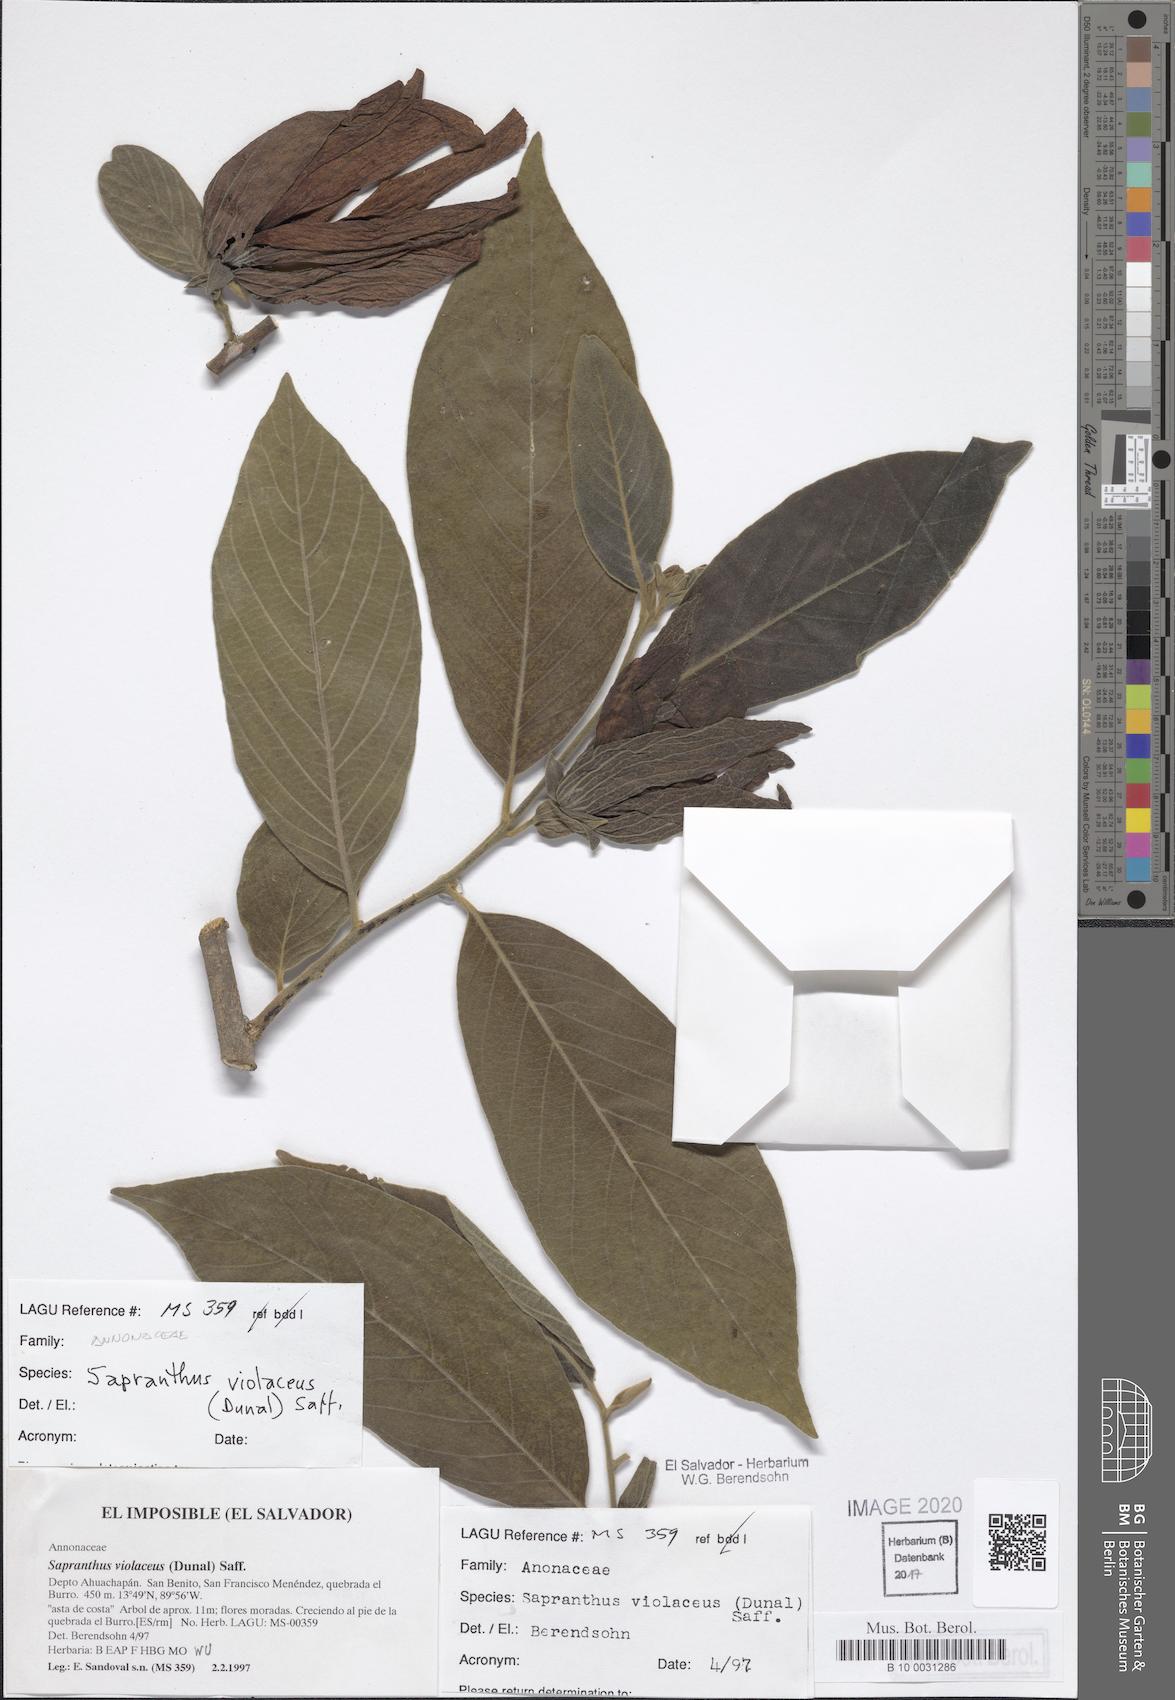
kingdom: Plantae
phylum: Tracheophyta
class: Magnoliopsida
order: Magnoliales
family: Annonaceae
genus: Sapranthus
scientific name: Sapranthus violaceus
